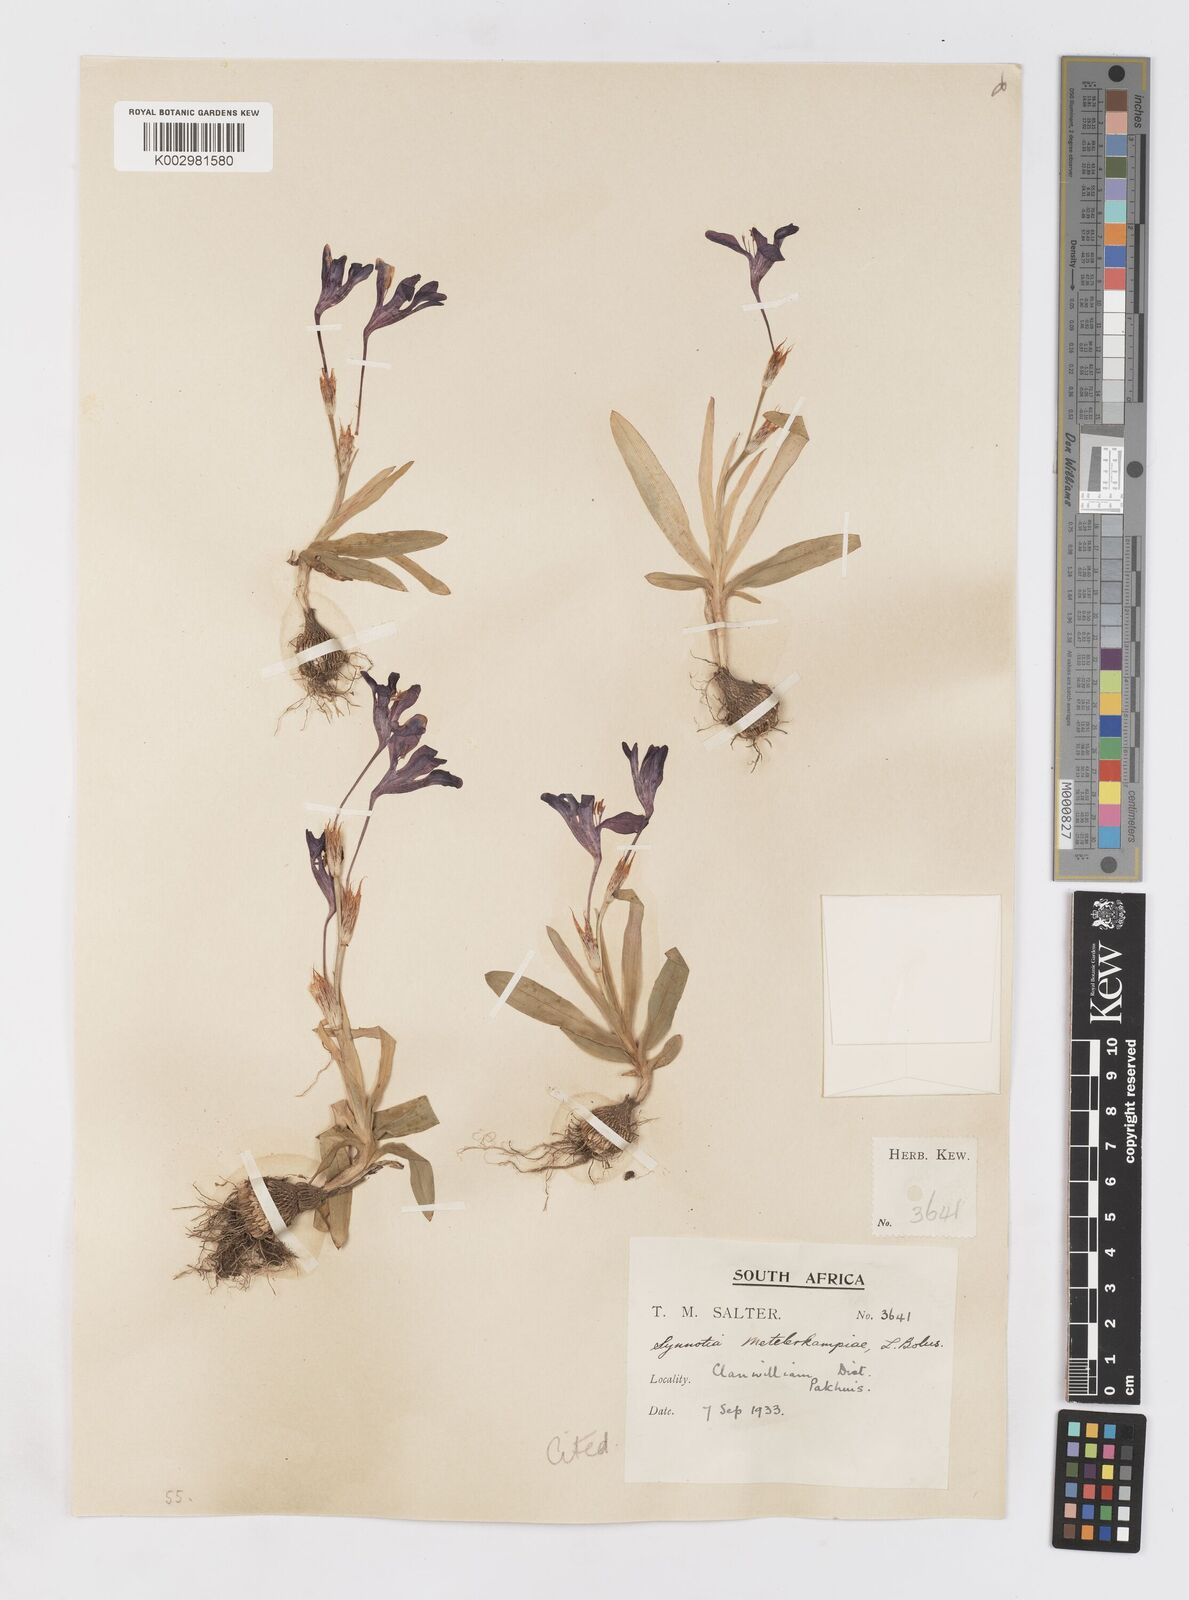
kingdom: Plantae
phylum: Tracheophyta
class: Liliopsida
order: Asparagales
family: Iridaceae
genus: Sparaxis
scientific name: Sparaxis metelerkampiae
